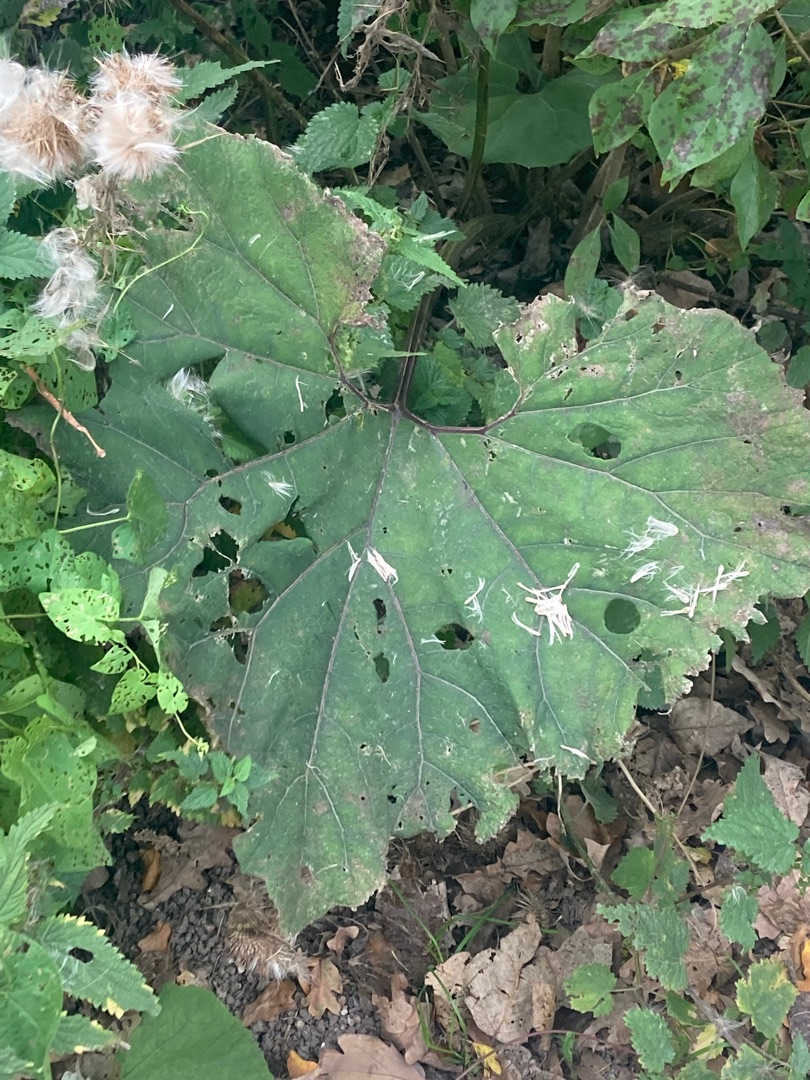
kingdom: Plantae
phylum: Tracheophyta
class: Magnoliopsida
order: Asterales
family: Asteraceae
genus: Petasites
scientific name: Petasites hybridus
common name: Rød hestehov
